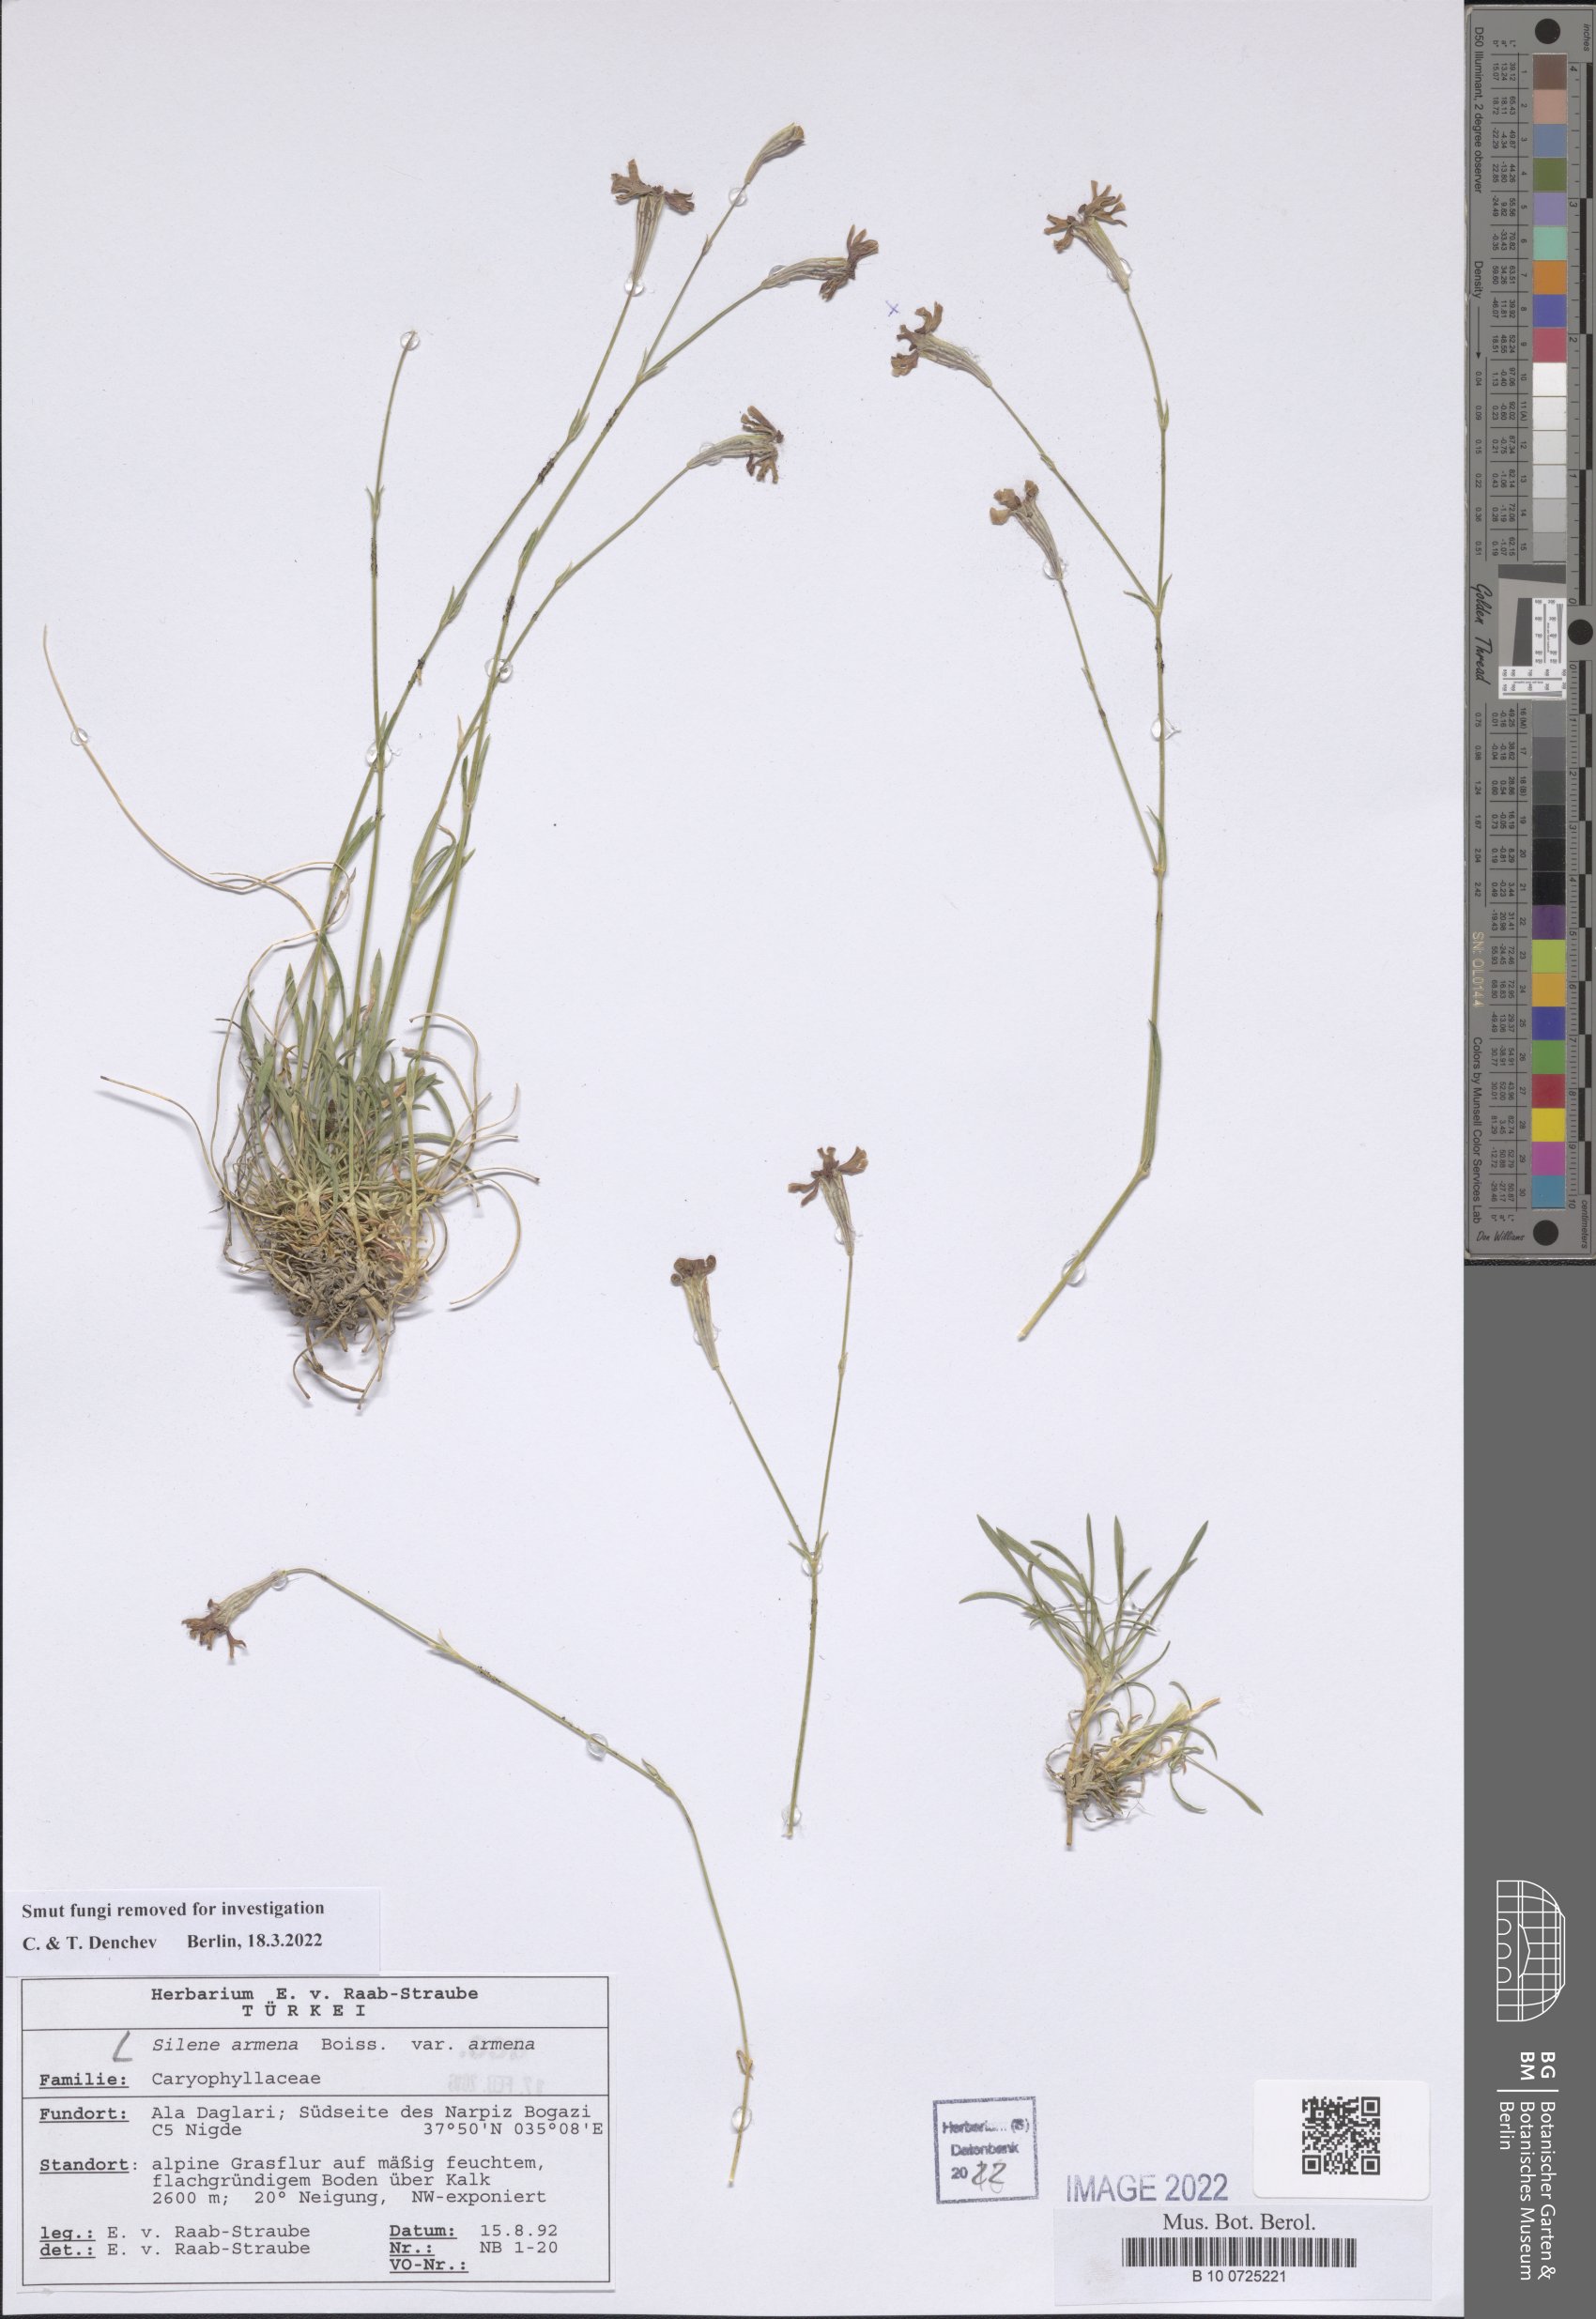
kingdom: Plantae
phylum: Tracheophyta
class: Magnoliopsida
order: Caryophyllales
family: Caryophyllaceae
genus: Silene
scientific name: Silene armena
